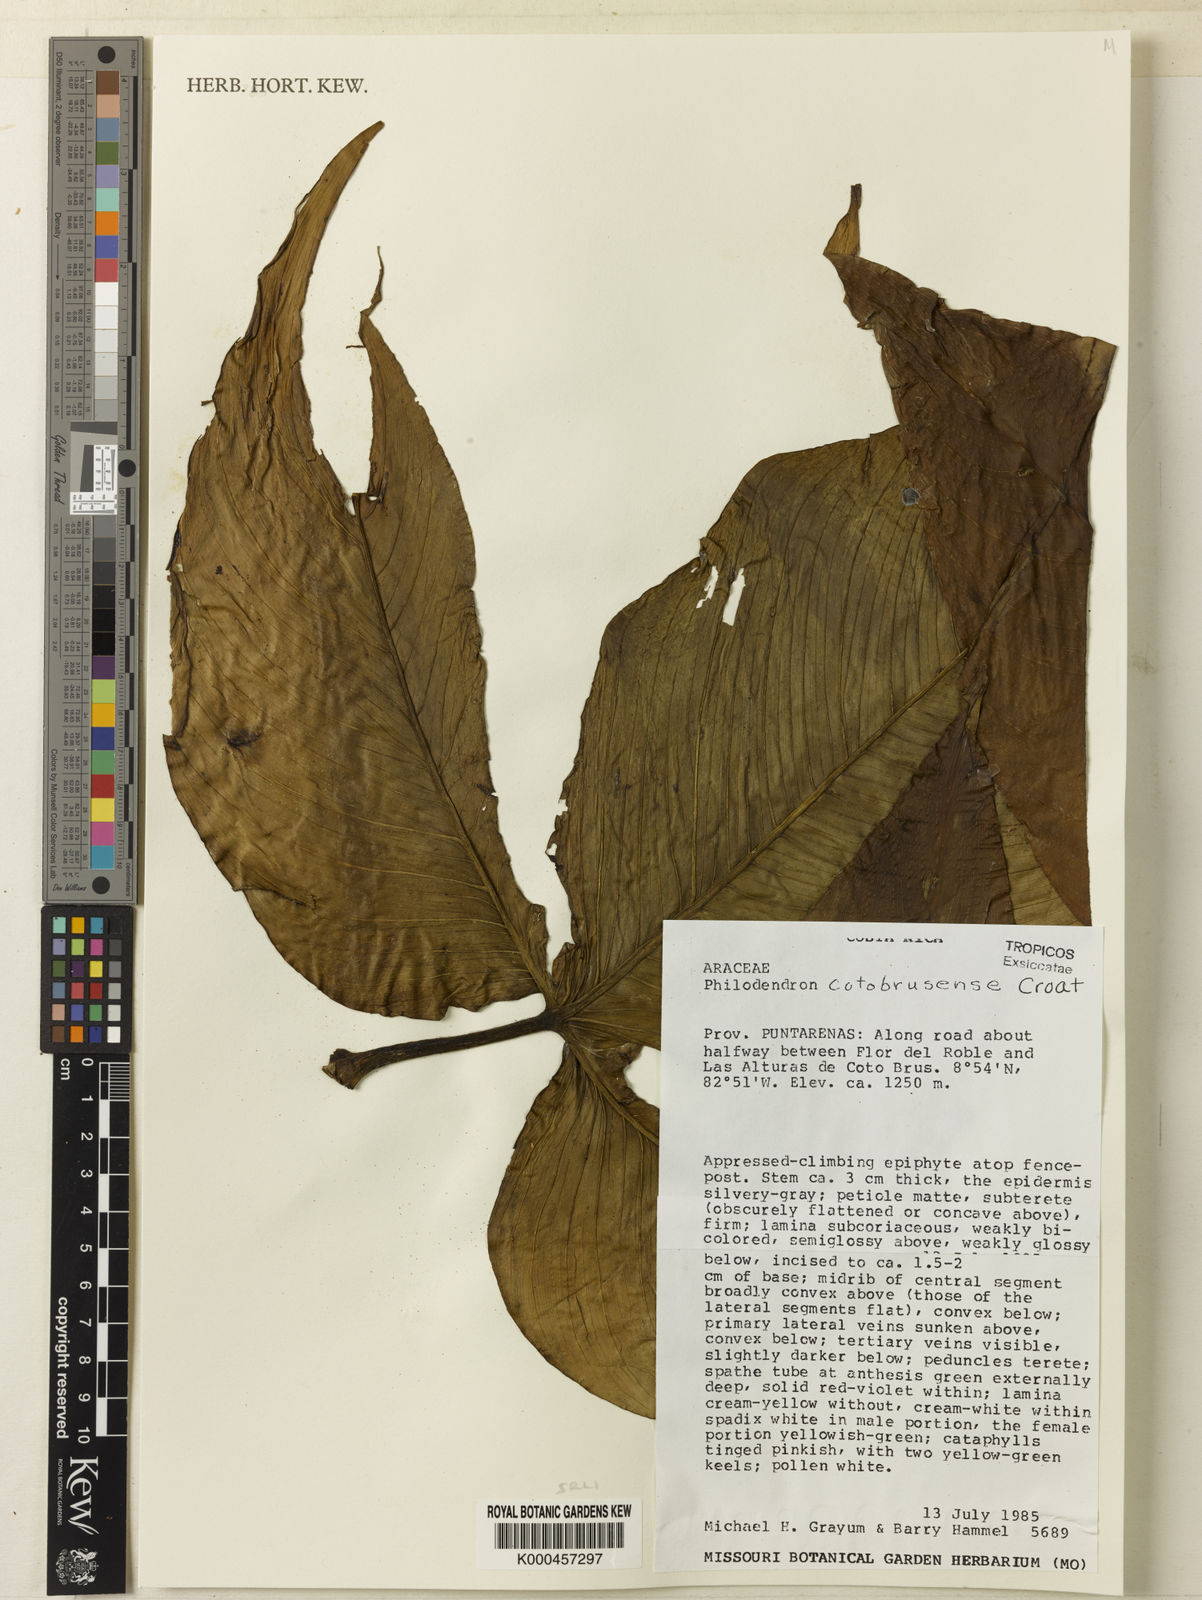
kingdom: Plantae
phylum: Tracheophyta
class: Liliopsida
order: Alismatales
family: Araceae
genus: Philodendron
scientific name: Philodendron cotobrusense
